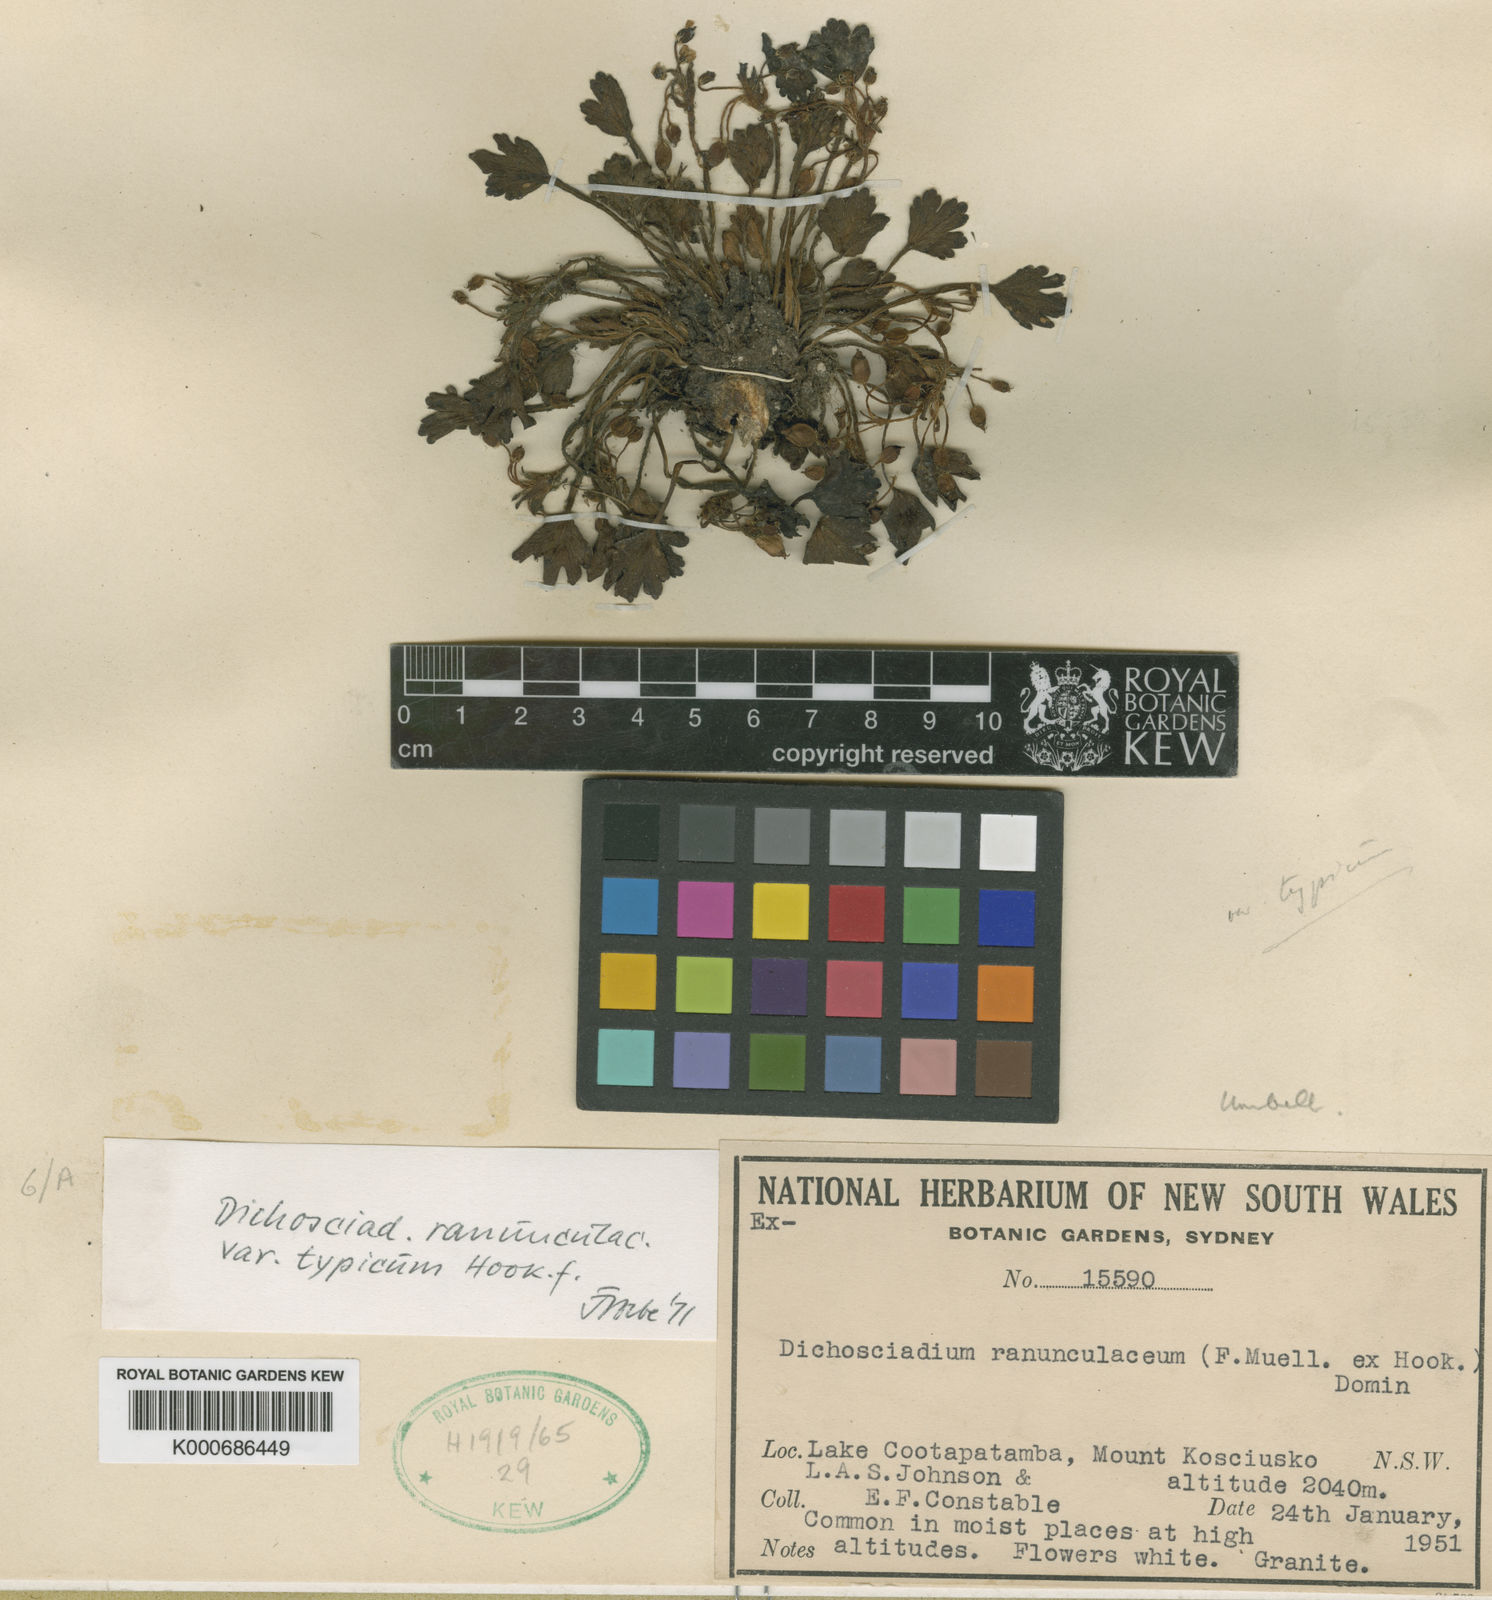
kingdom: Plantae
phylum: Tracheophyta
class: Magnoliopsida
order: Apiales
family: Apiaceae
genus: Dichosciadium
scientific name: Dichosciadium ranunculaceum
